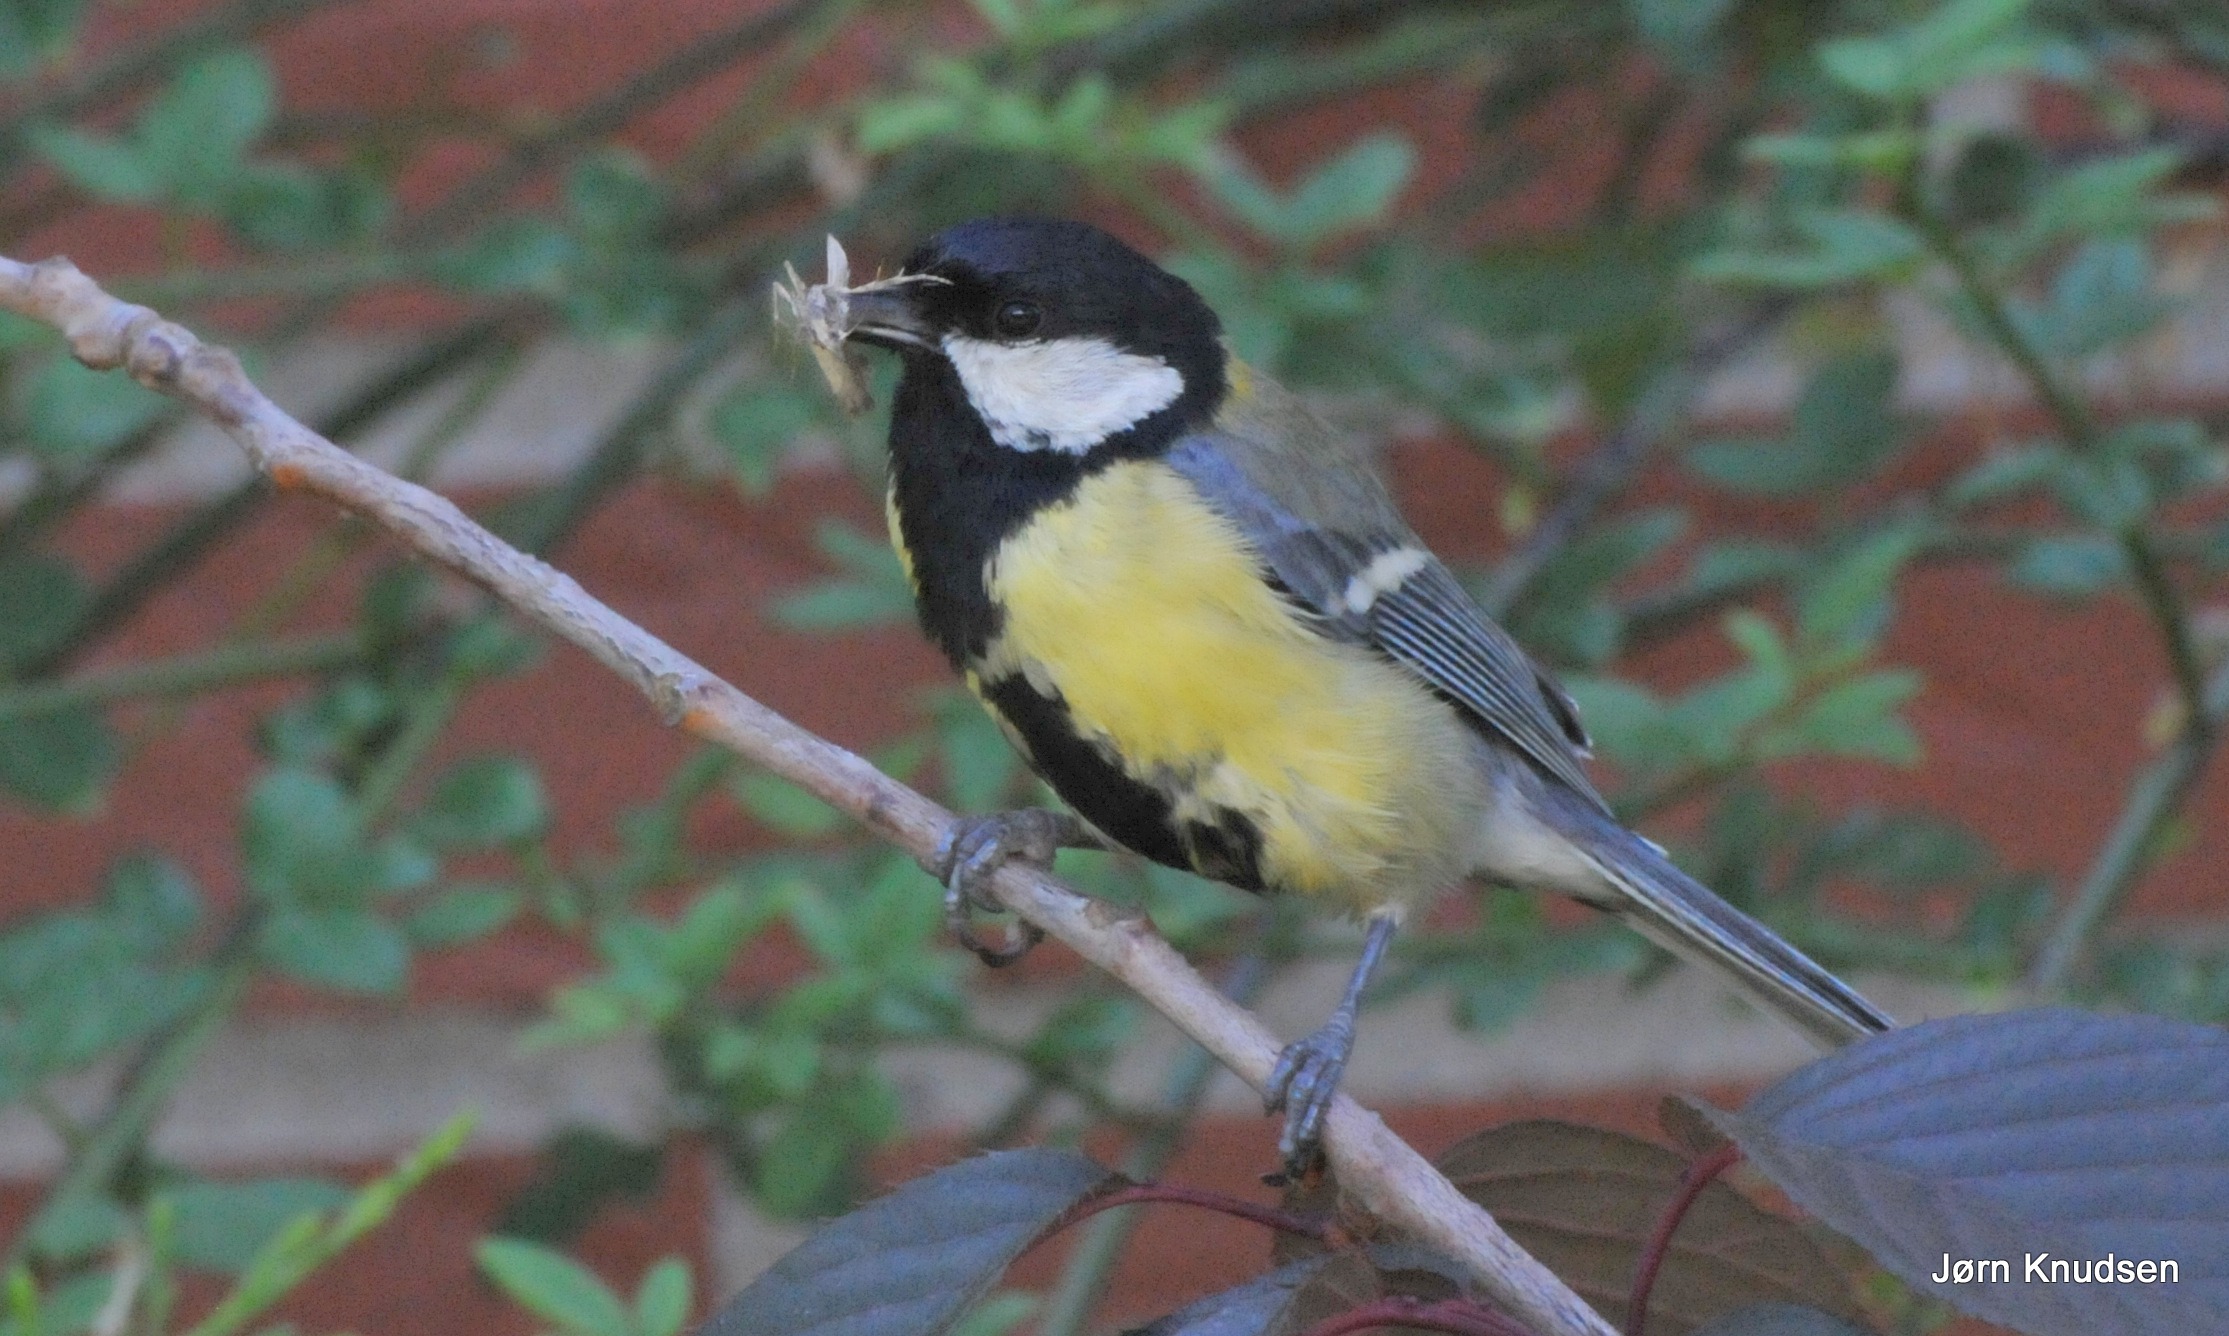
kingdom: Animalia
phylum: Chordata
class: Aves
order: Passeriformes
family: Paridae
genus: Parus
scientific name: Parus major
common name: Musvit
